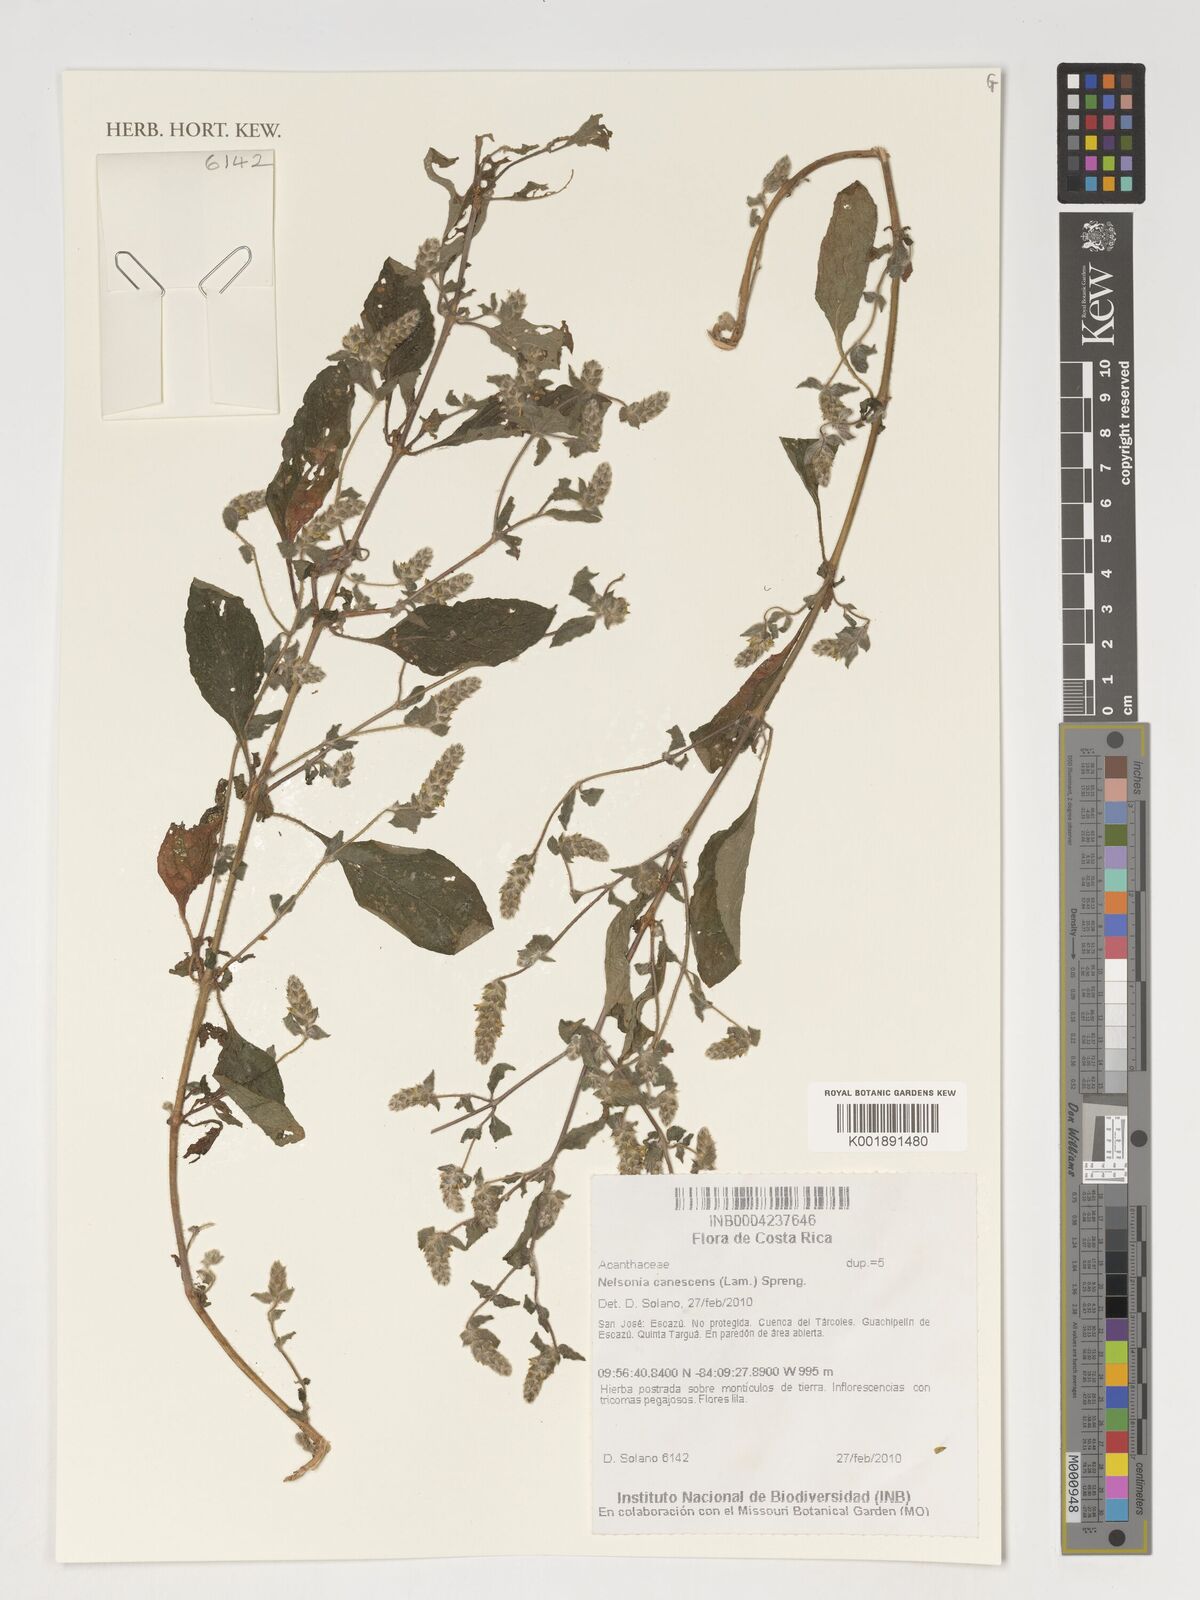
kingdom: Plantae
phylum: Tracheophyta
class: Magnoliopsida
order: Lamiales
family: Acanthaceae
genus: Nelsonia
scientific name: Nelsonia canescens
